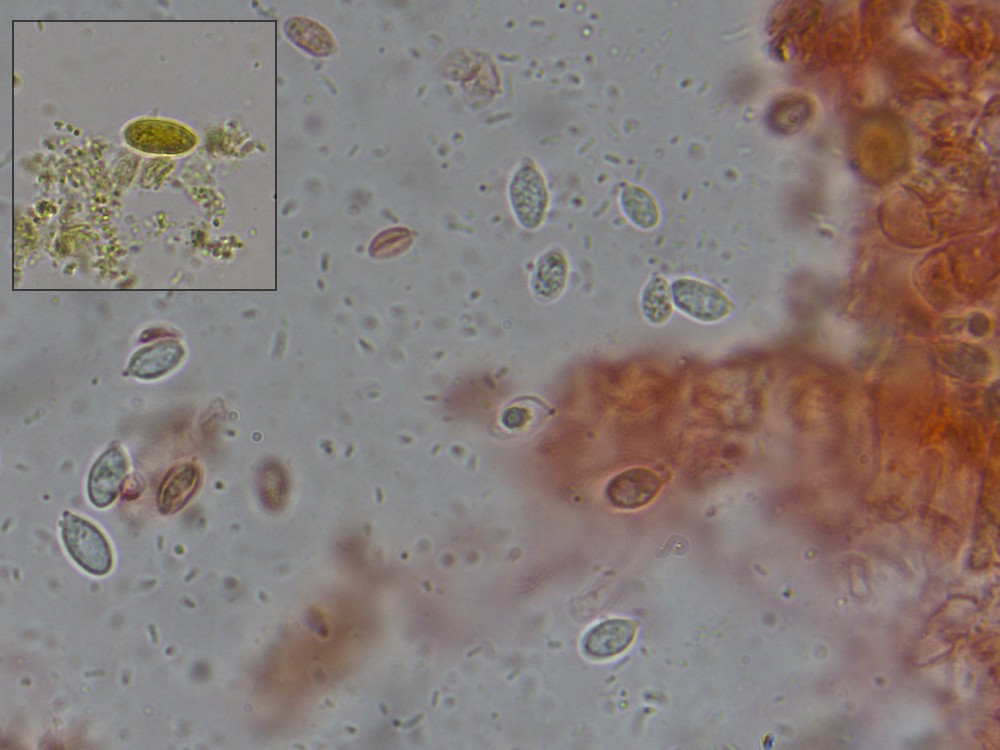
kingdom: Fungi
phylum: Basidiomycota
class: Agaricomycetes
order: Agaricales
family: Entolomataceae
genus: Clitopilus
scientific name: Clitopilus scyphoides
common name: spinkel melhat
